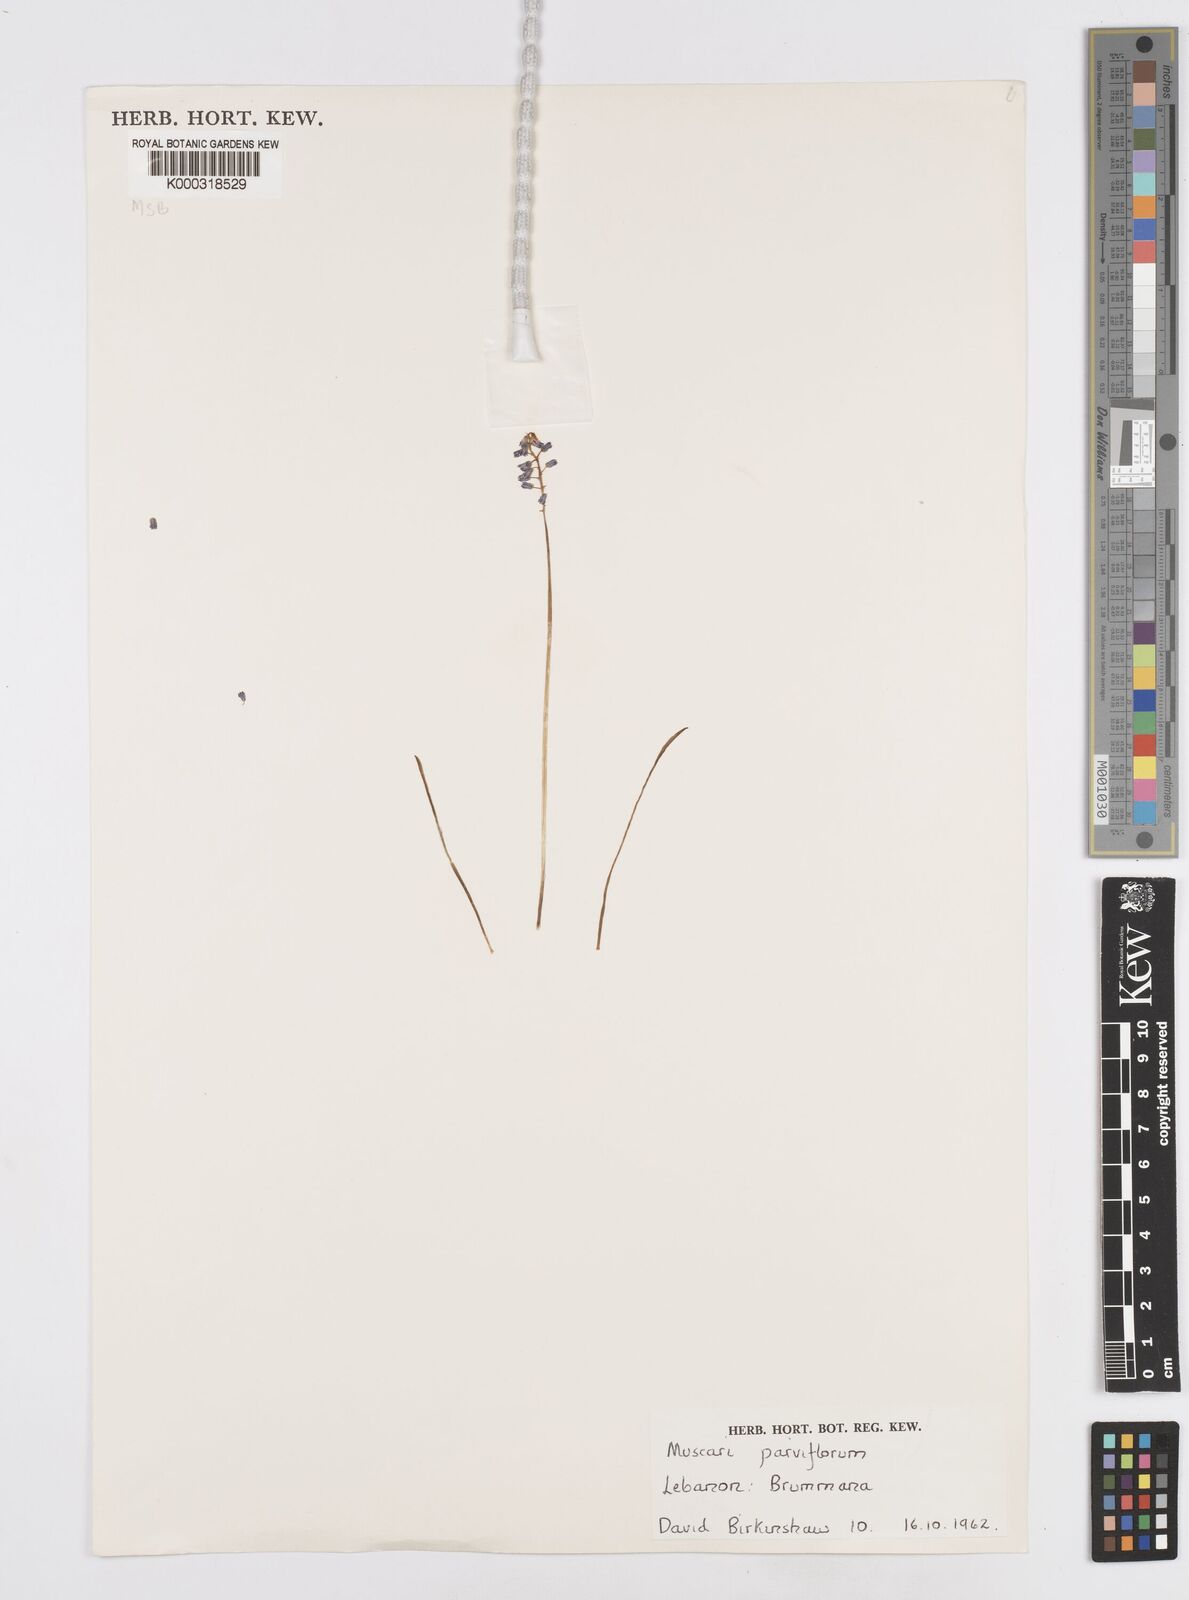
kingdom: Plantae
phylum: Tracheophyta
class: Liliopsida
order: Asparagales
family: Asparagaceae
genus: Muscari
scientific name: Muscari parviflorum
